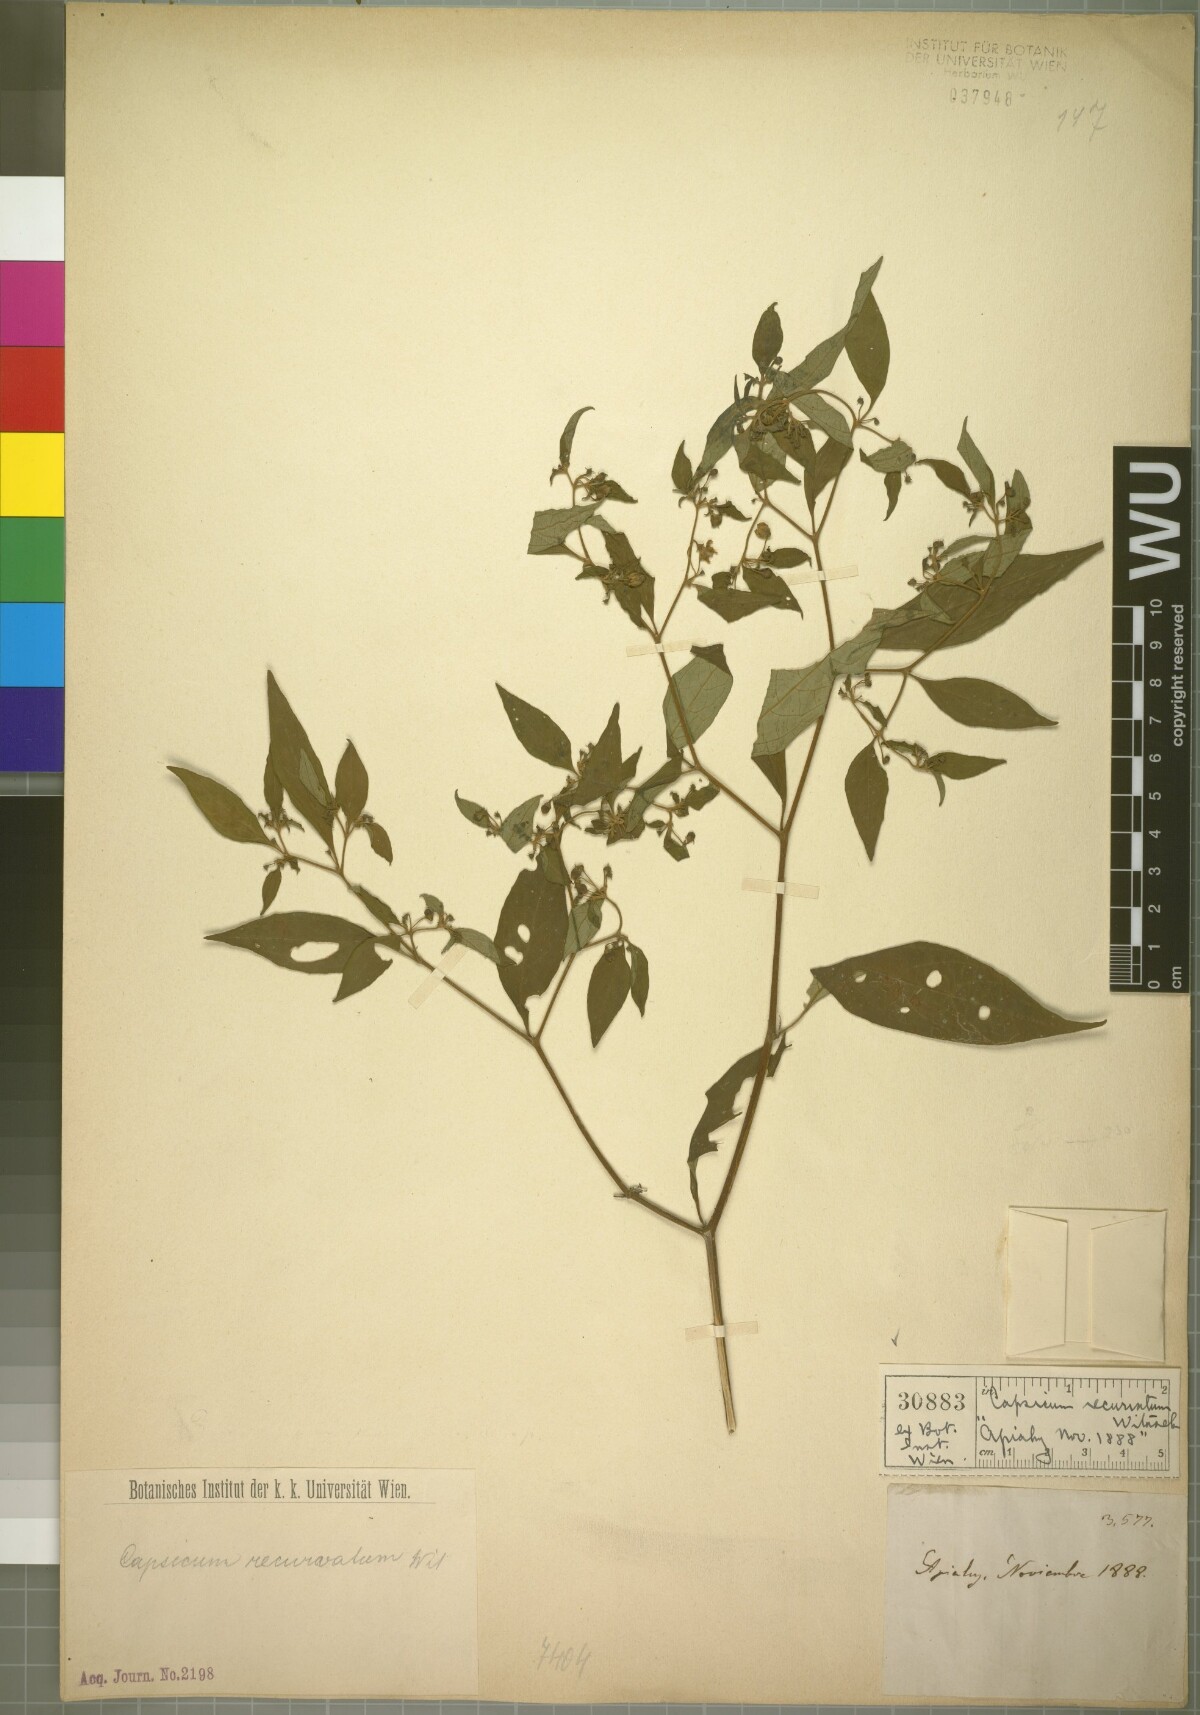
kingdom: Plantae
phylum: Tracheophyta
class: Magnoliopsida
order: Solanales
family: Solanaceae
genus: Capsicum
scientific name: Capsicum recurvatum
